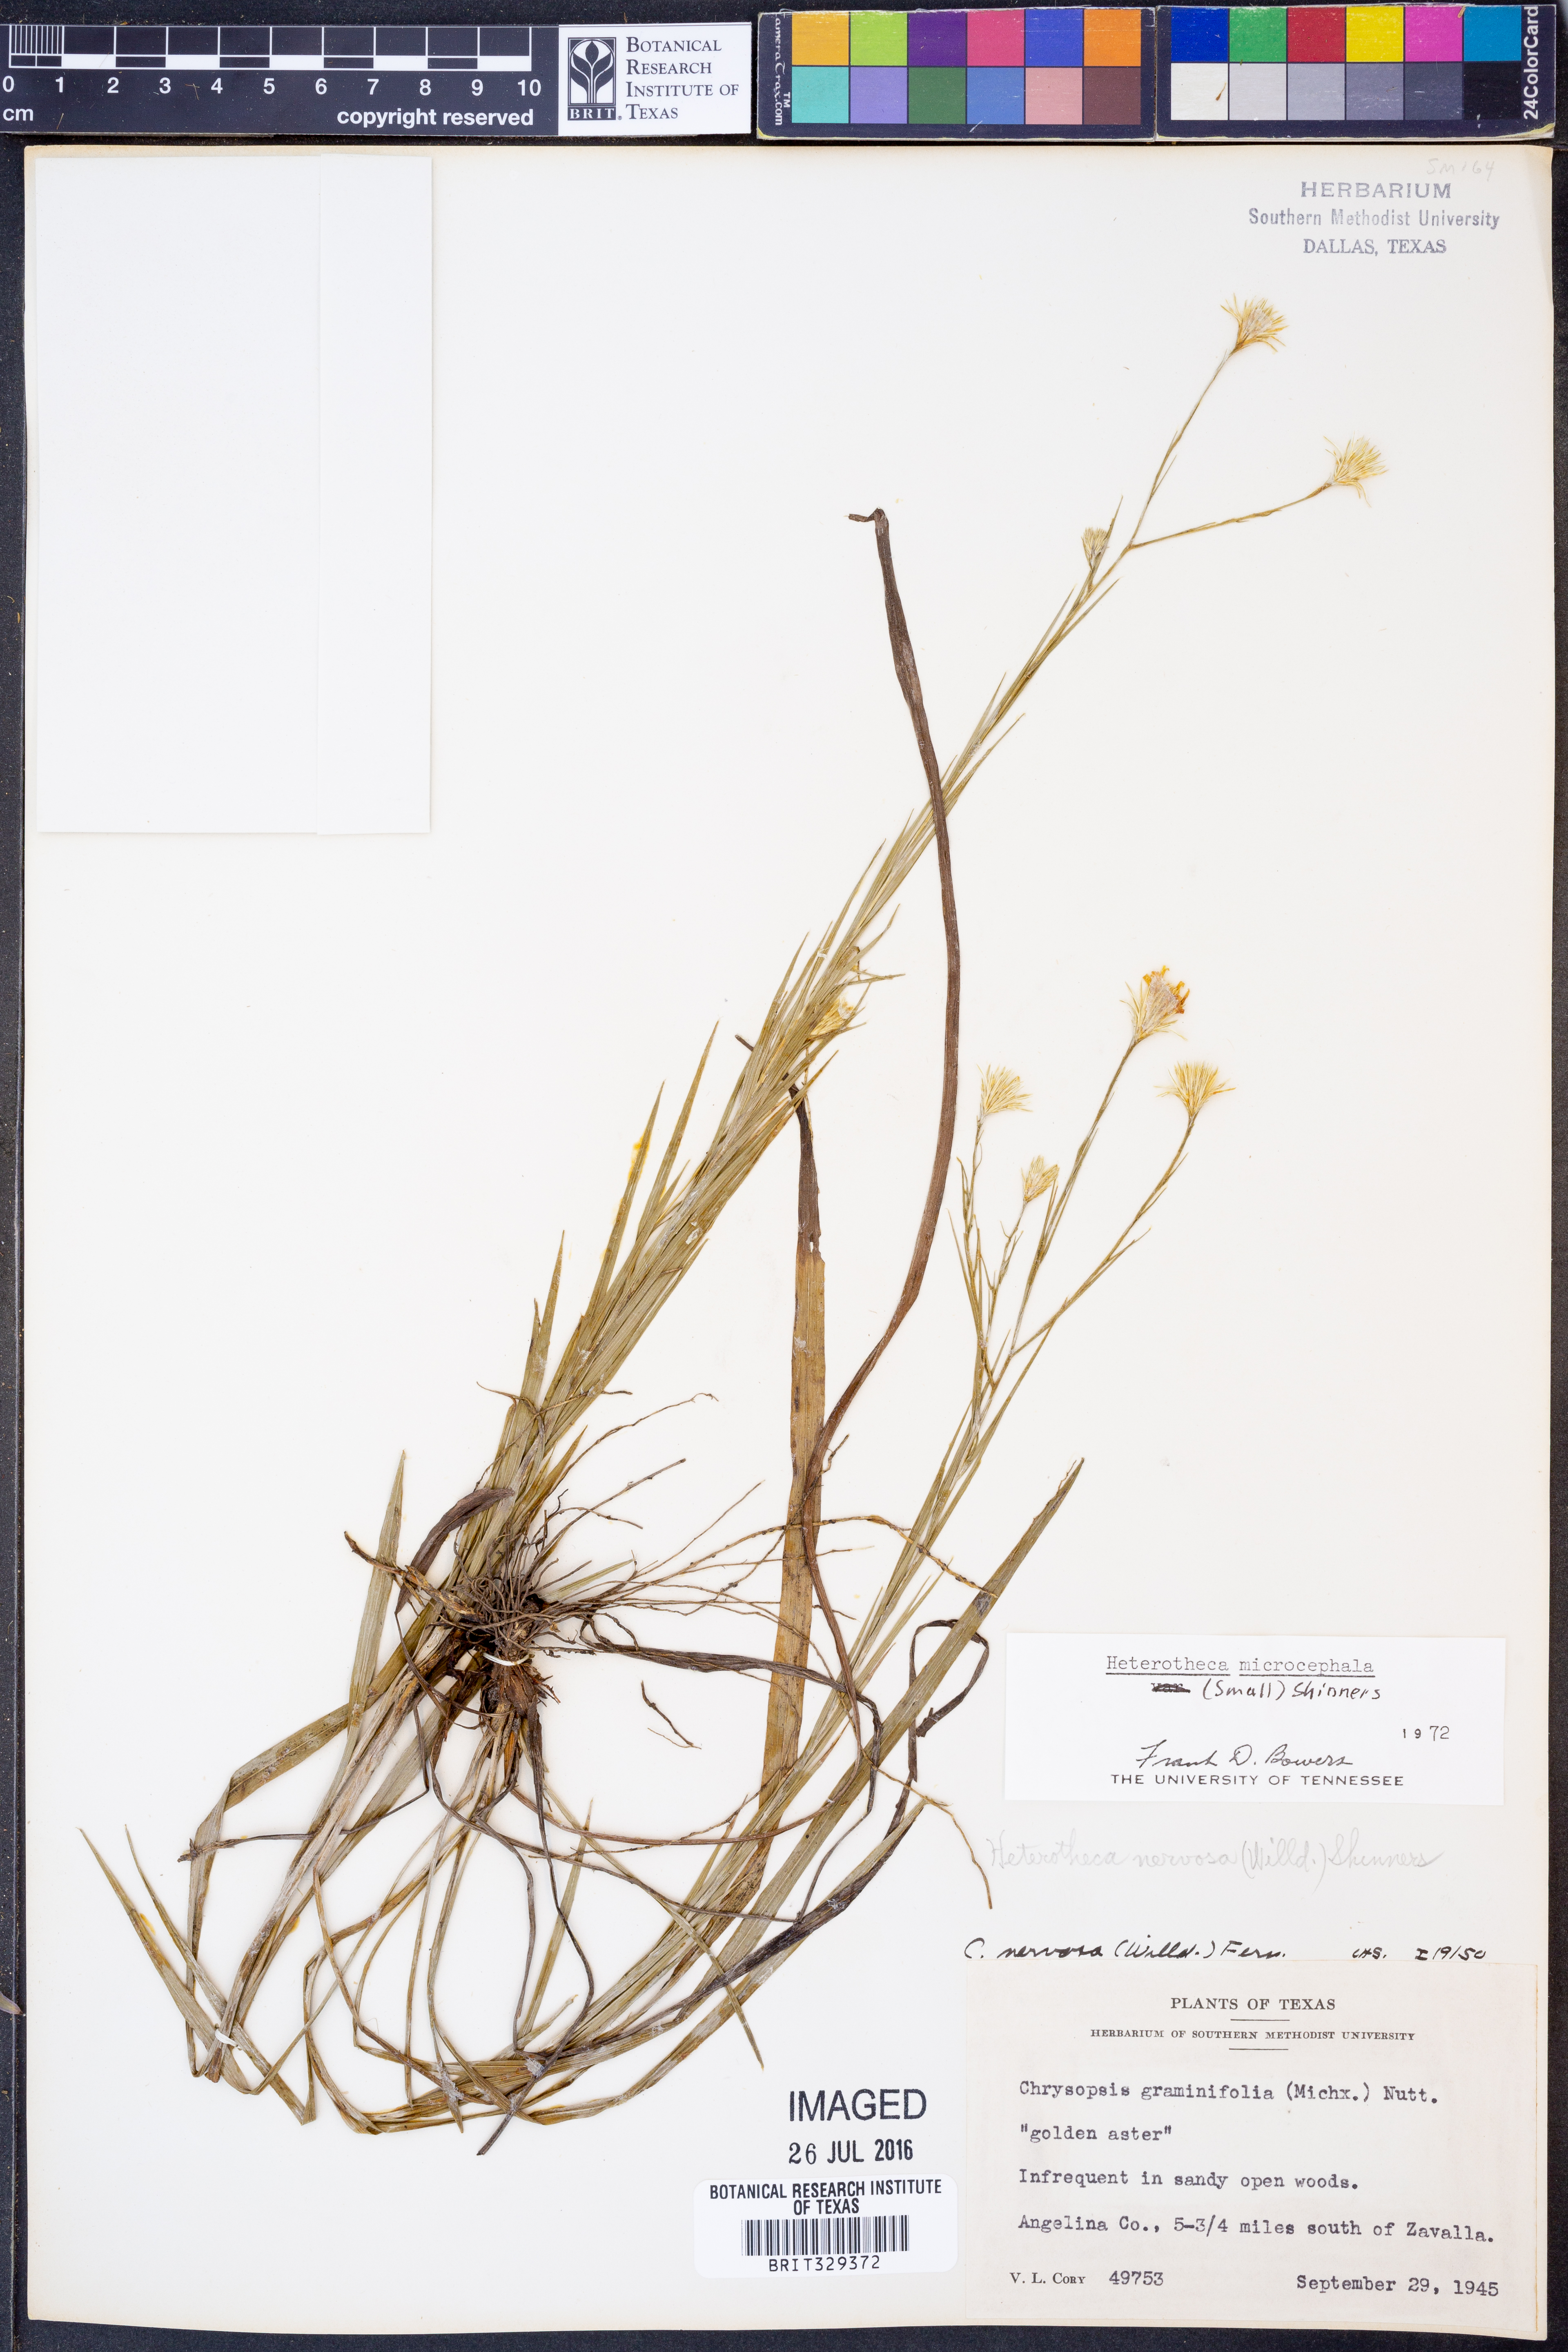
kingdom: Plantae
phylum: Tracheophyta
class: Magnoliopsida
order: Asterales
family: Asteraceae
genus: Pityopsis
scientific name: Pityopsis microcephala
